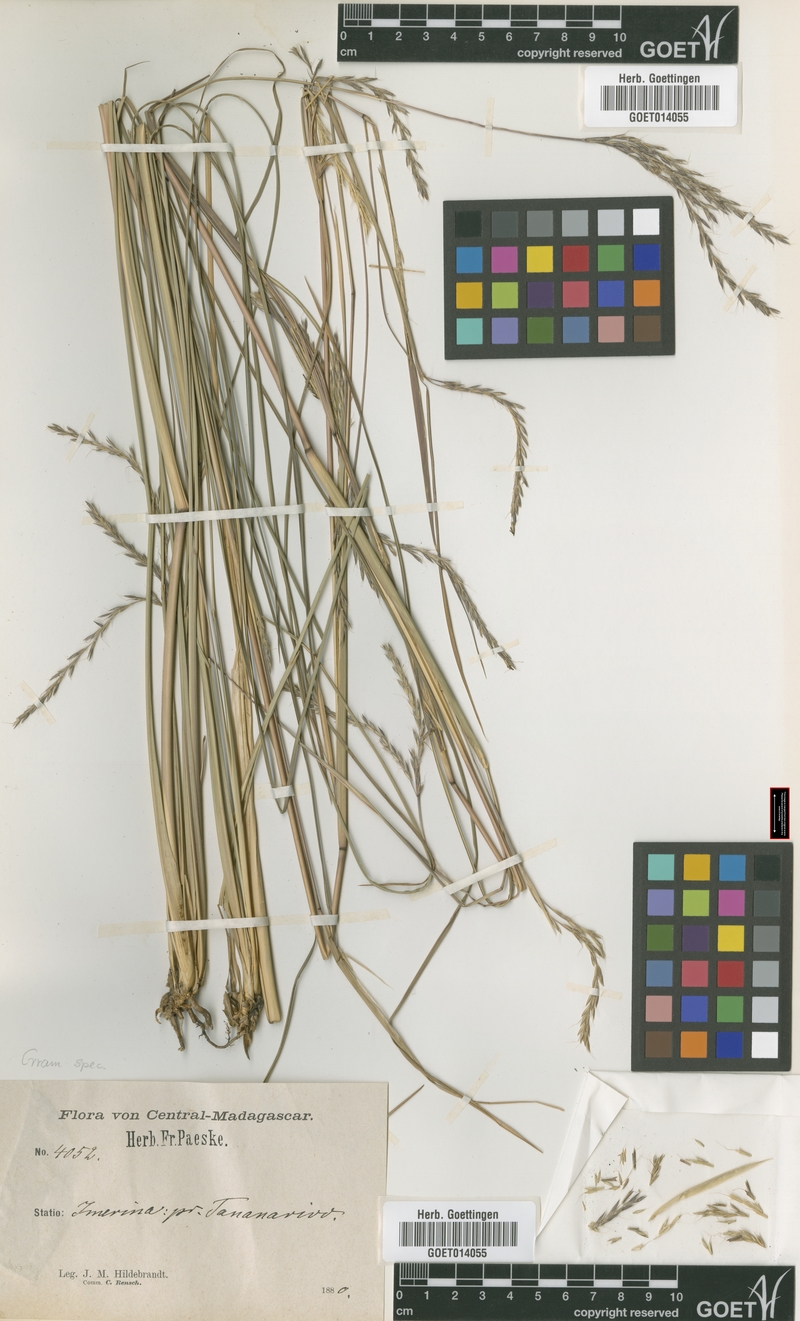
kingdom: Plantae
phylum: Tracheophyta
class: Liliopsida
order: Poales
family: Poaceae
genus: Andropogon
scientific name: Andropogon trichozygus
